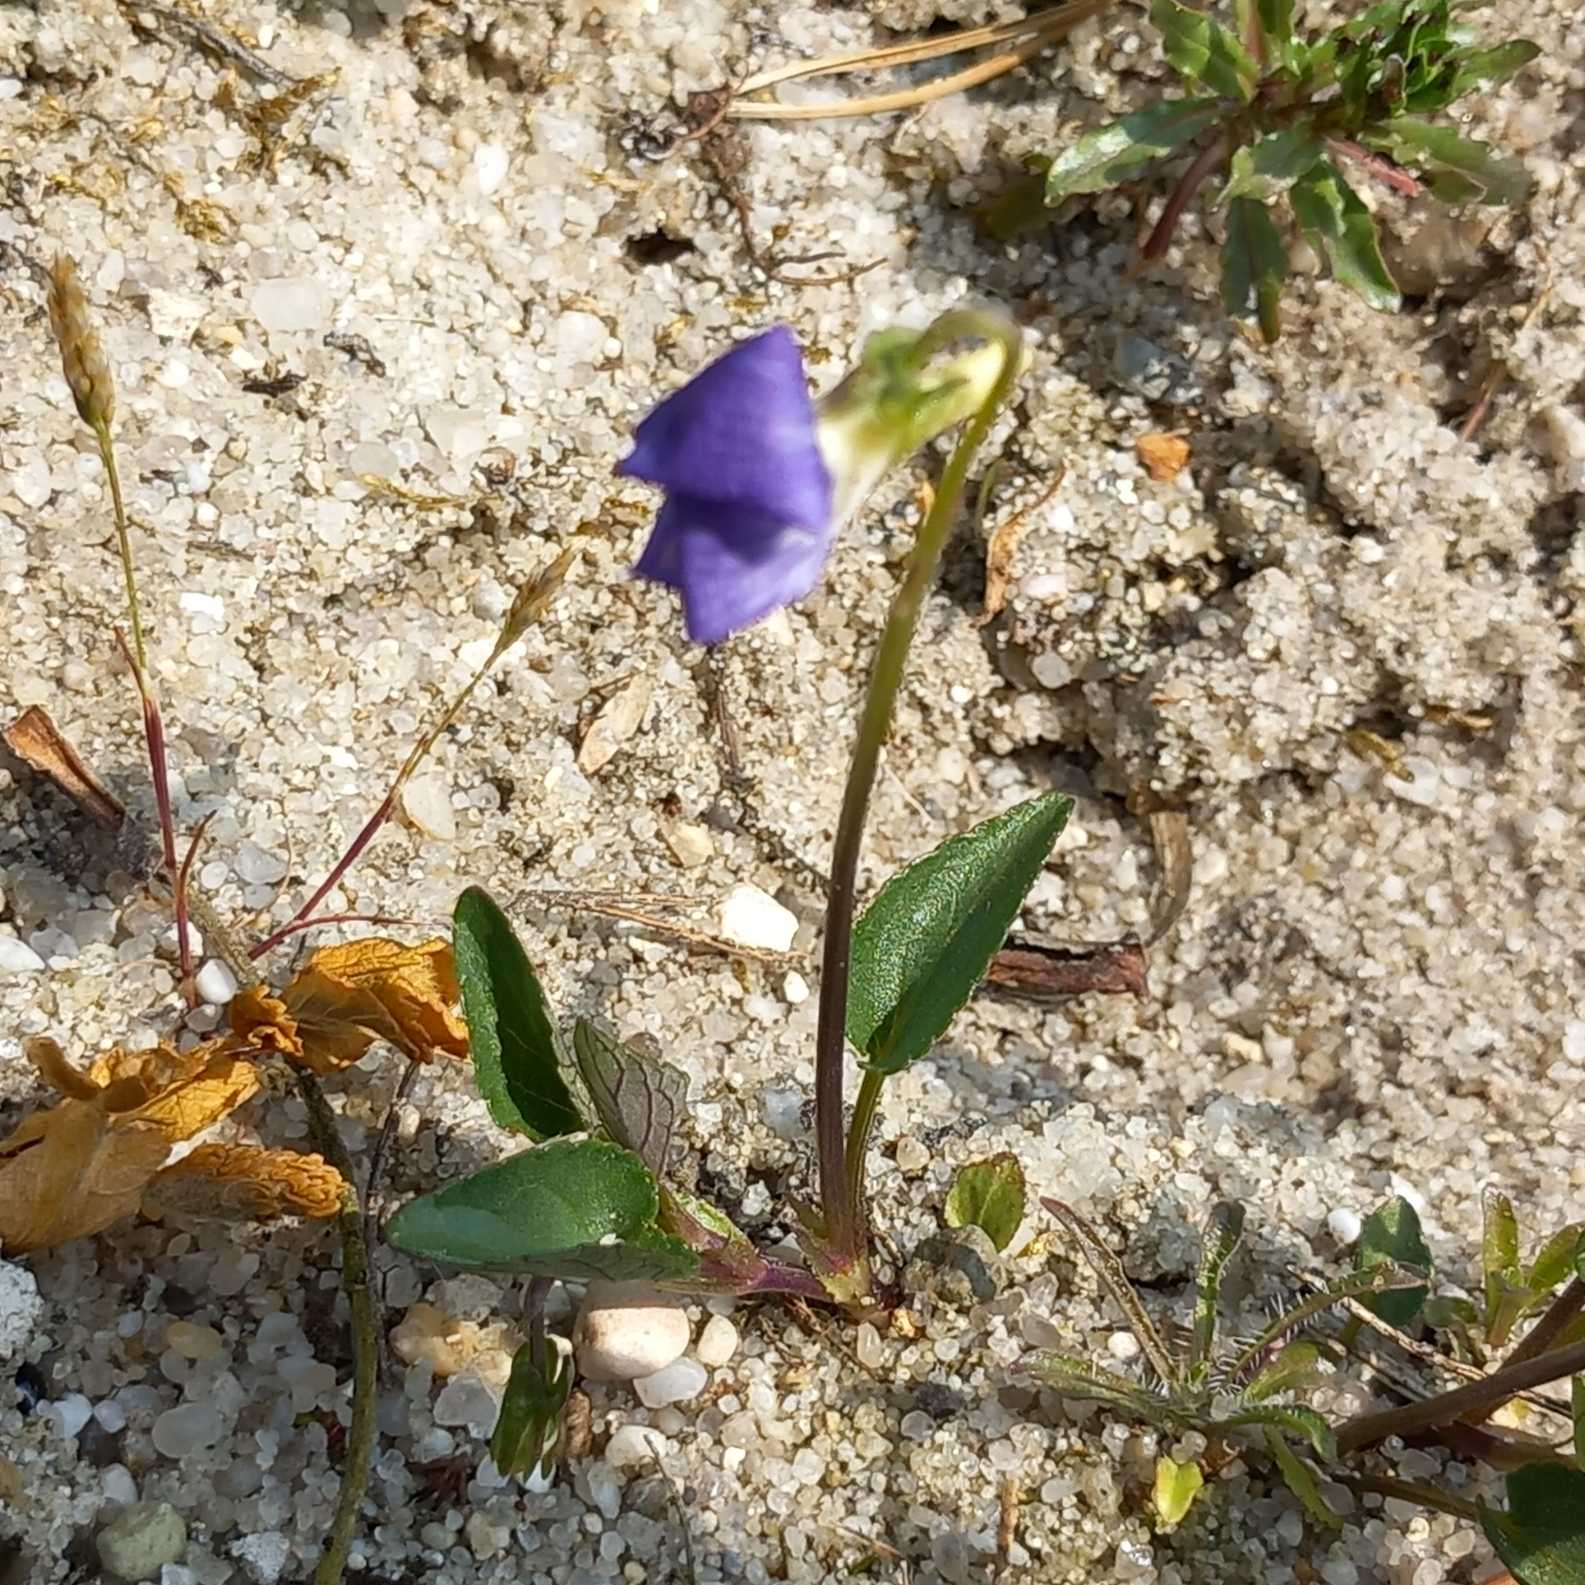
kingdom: Plantae
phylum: Tracheophyta
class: Magnoliopsida
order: Malpighiales
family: Violaceae
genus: Viola
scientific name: Viola canina
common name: Hunde-viol
